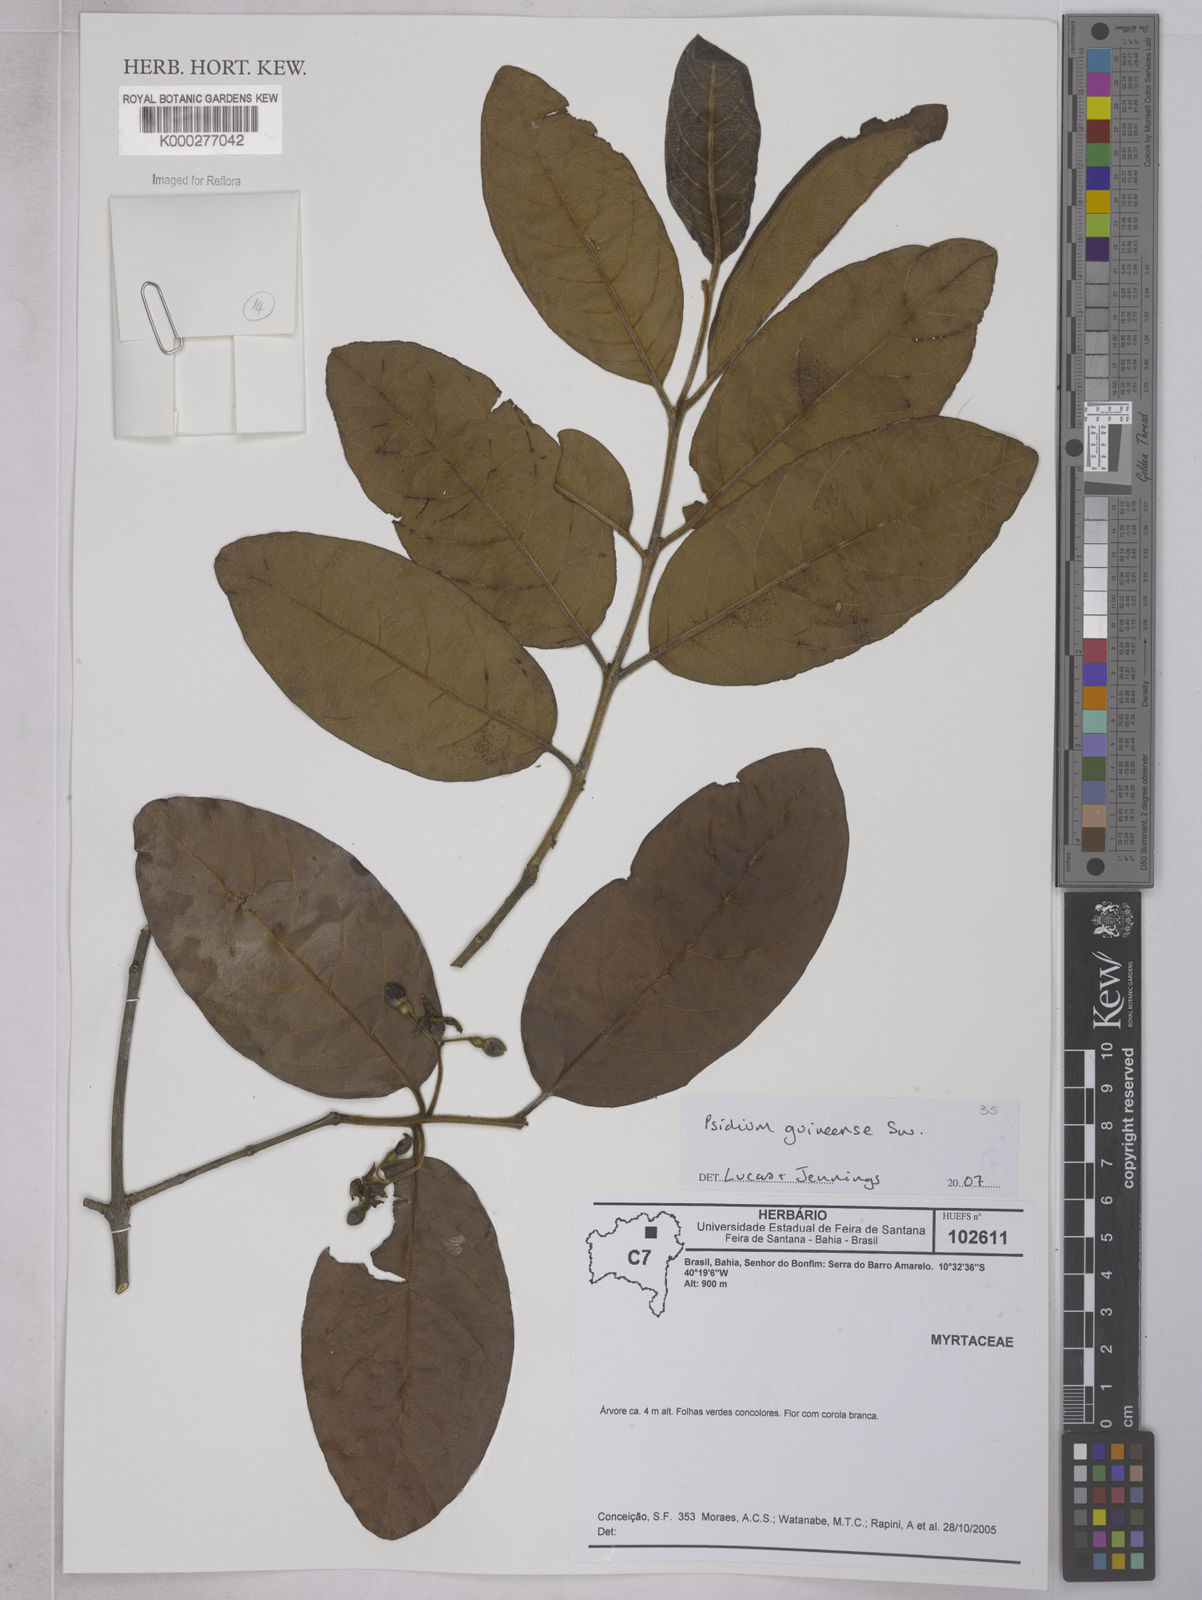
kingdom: Plantae
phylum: Tracheophyta
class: Magnoliopsida
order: Myrtales
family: Myrtaceae
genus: Psidium
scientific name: Psidium guineense
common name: Brazilian guava
